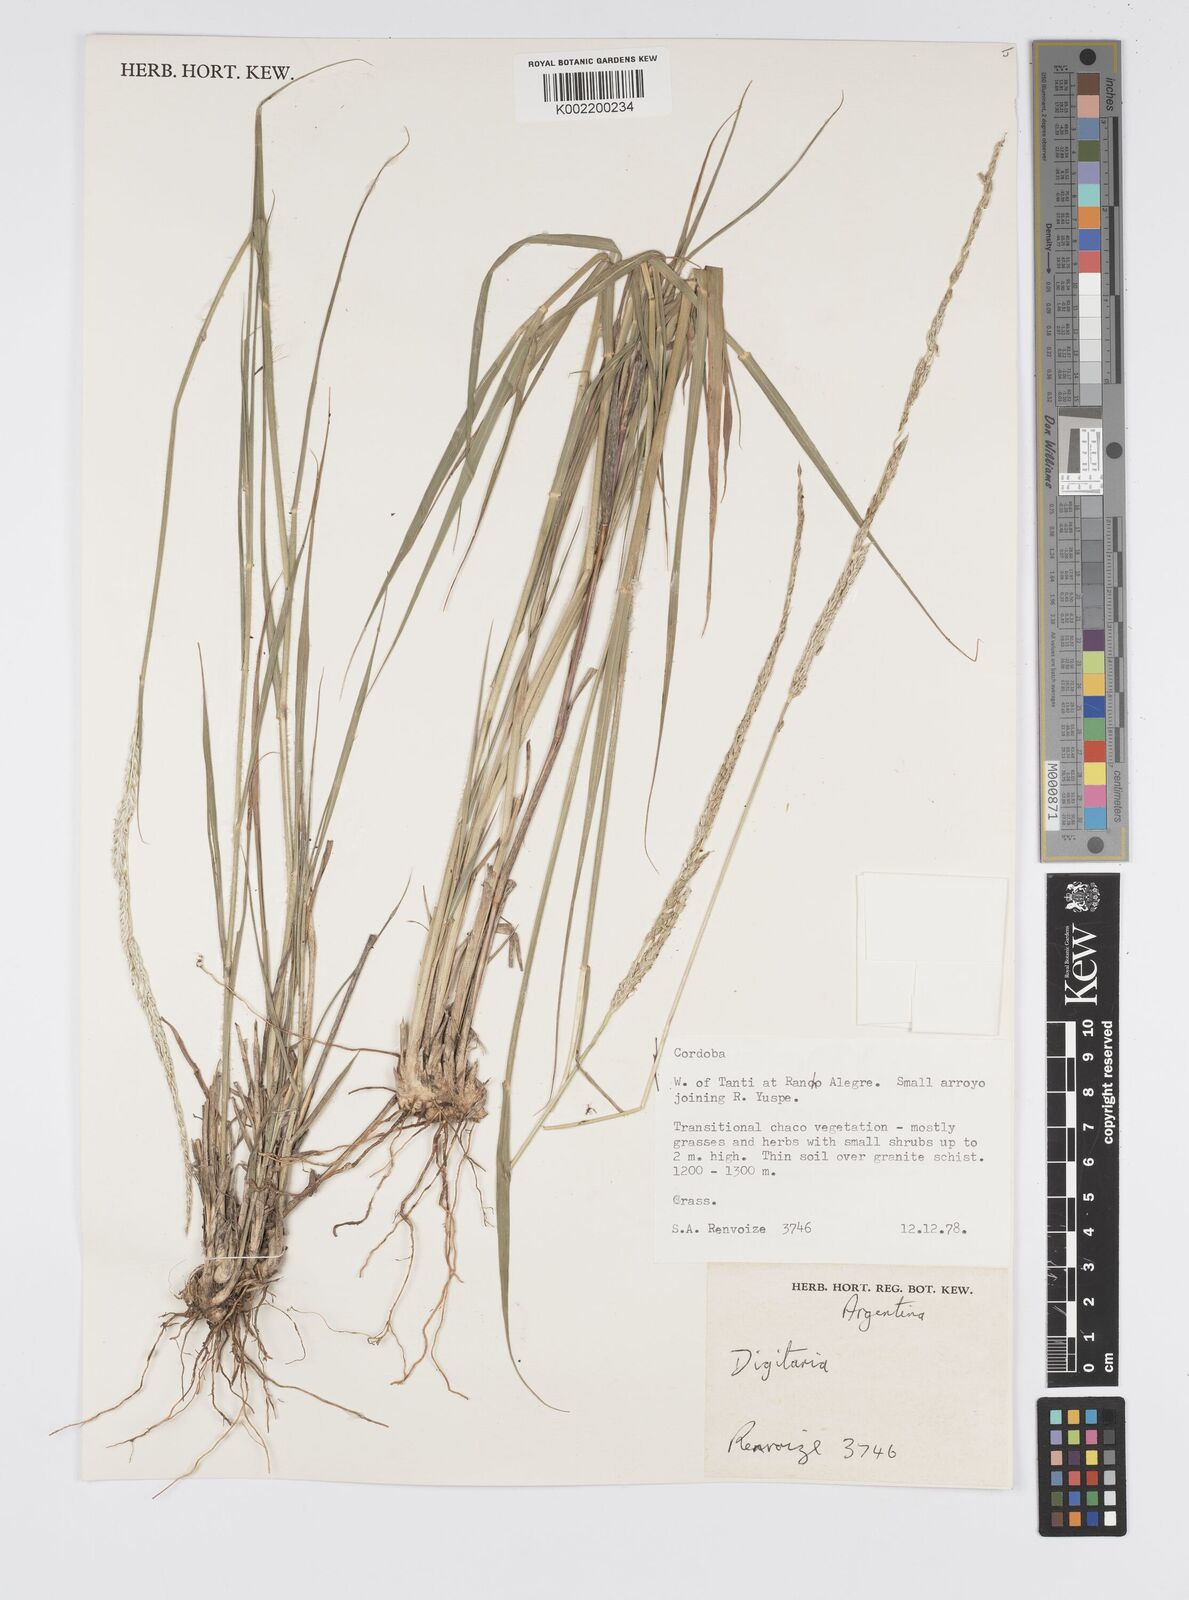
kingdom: Plantae
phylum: Tracheophyta
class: Liliopsida
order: Poales
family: Poaceae
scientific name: Poaceae
